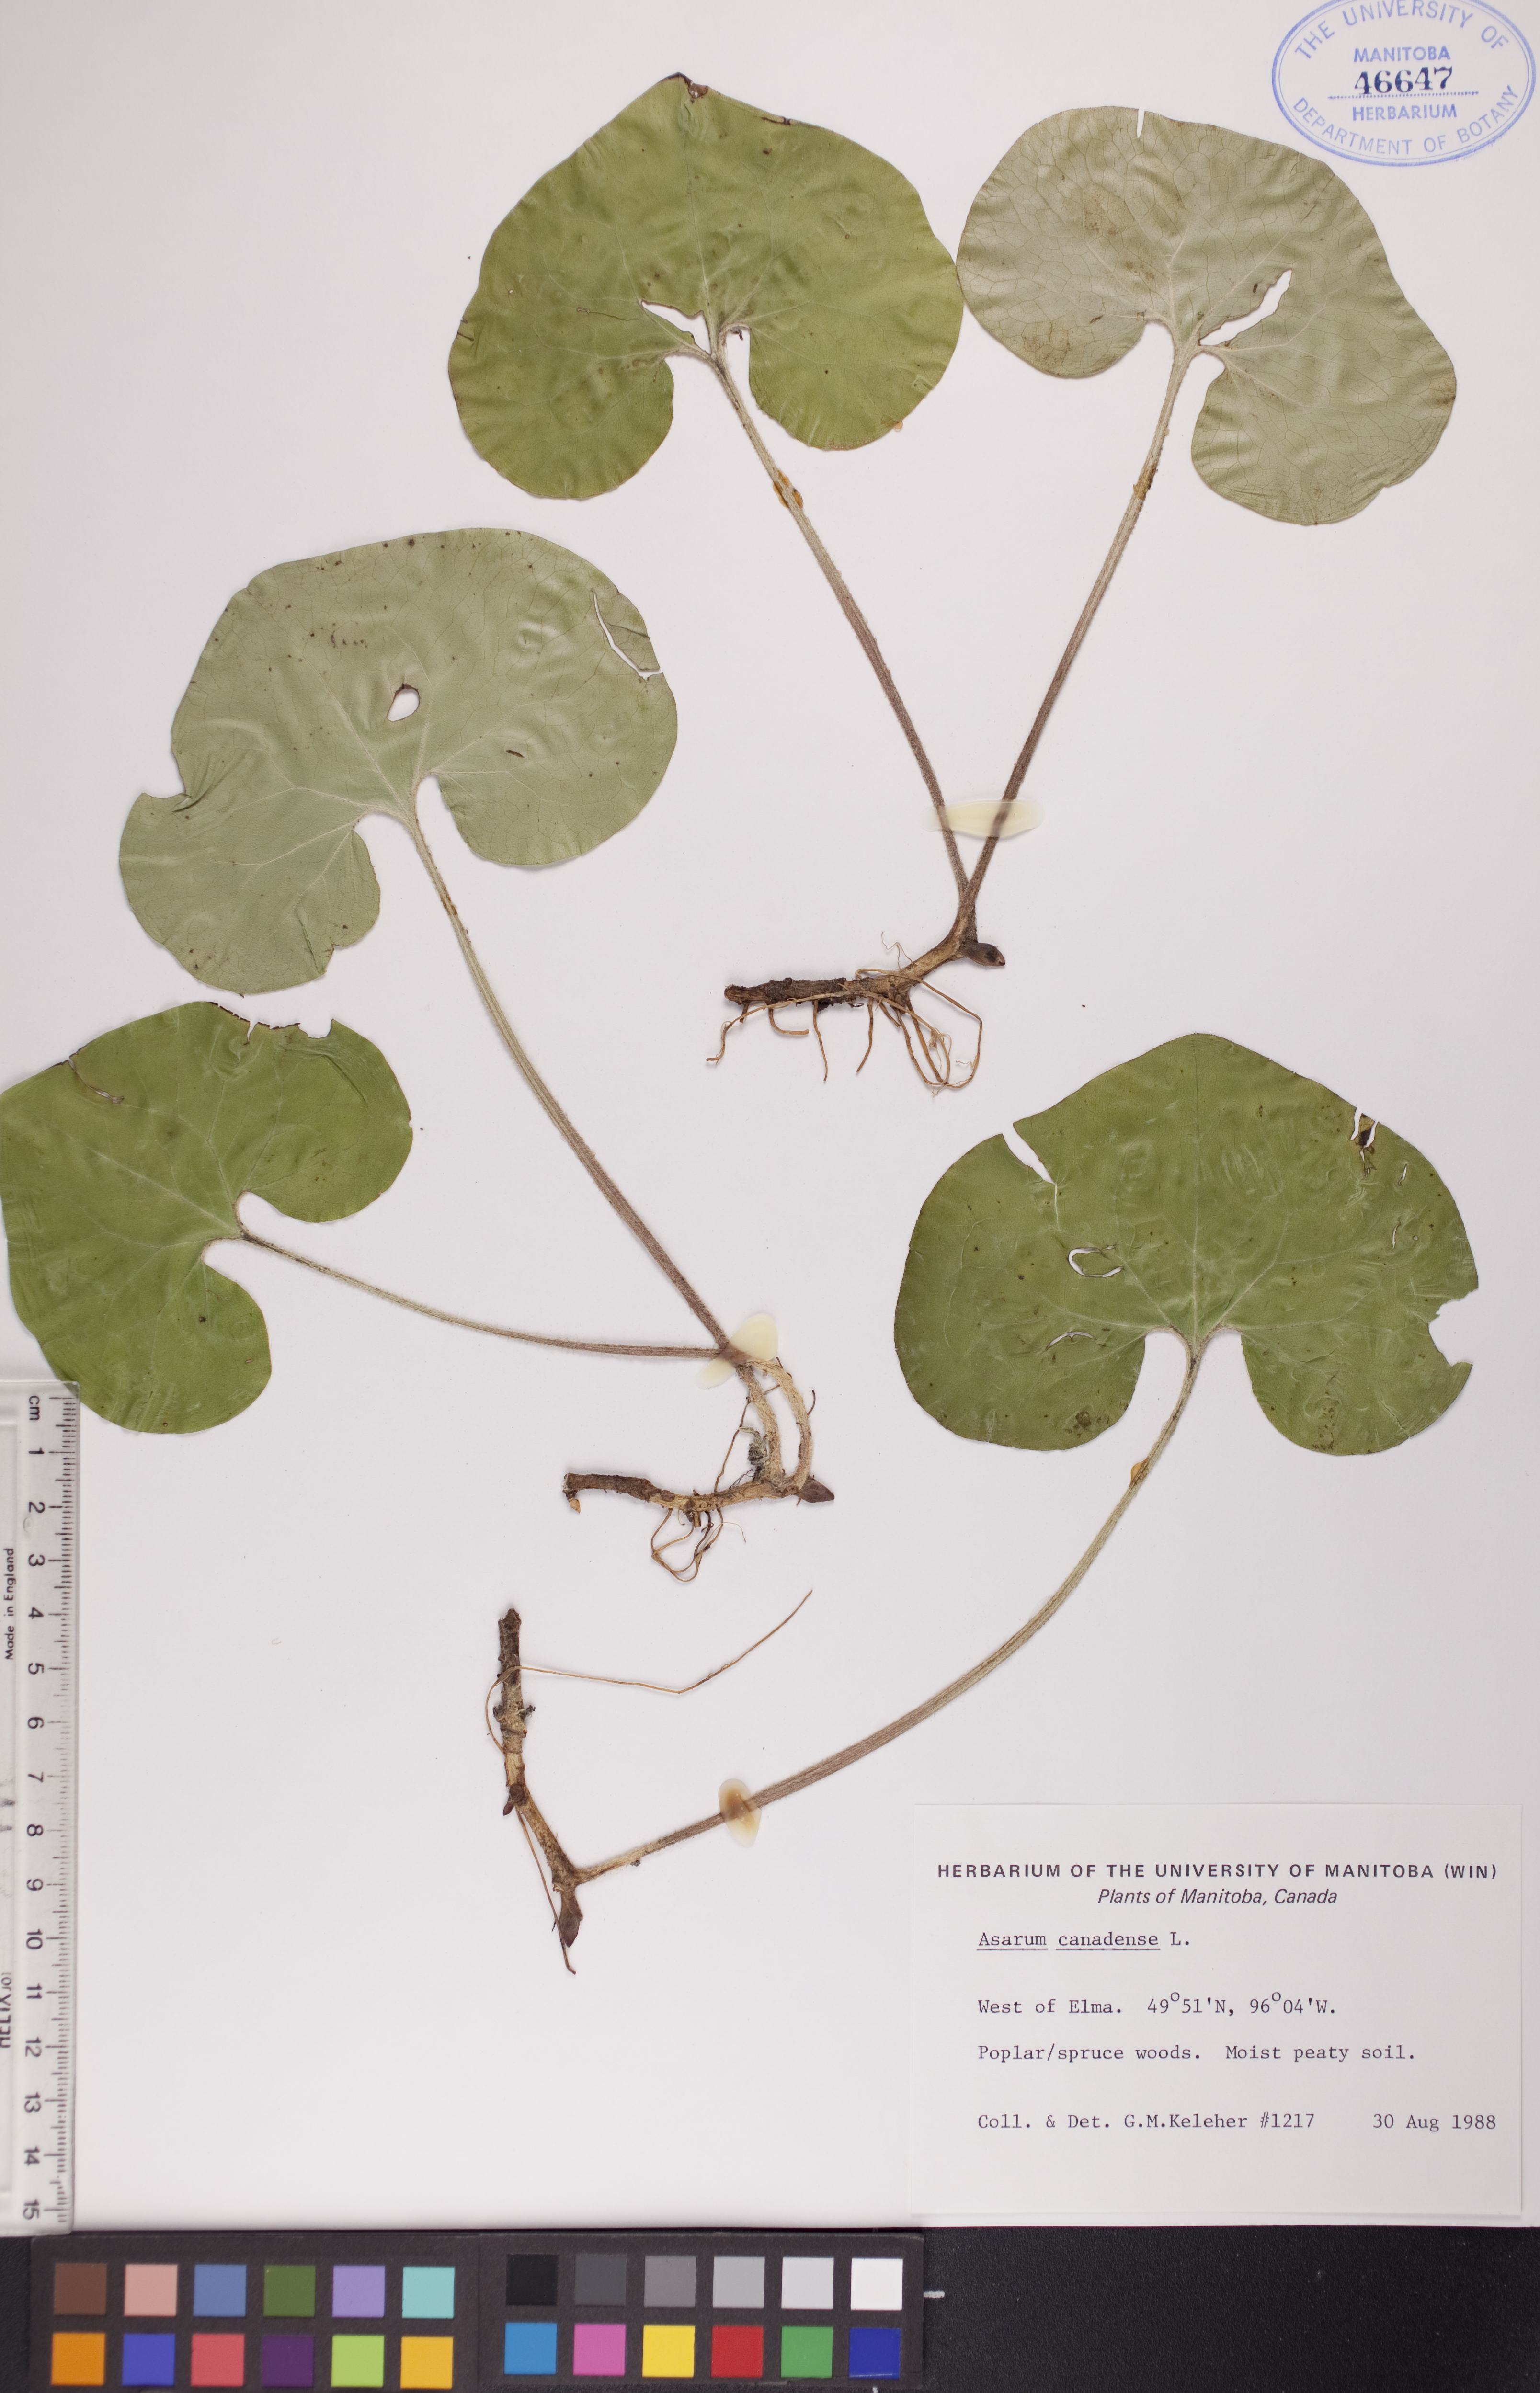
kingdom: Plantae
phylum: Tracheophyta
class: Magnoliopsida
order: Piperales
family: Aristolochiaceae
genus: Asarum
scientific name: Asarum canadense
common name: Wild ginger
